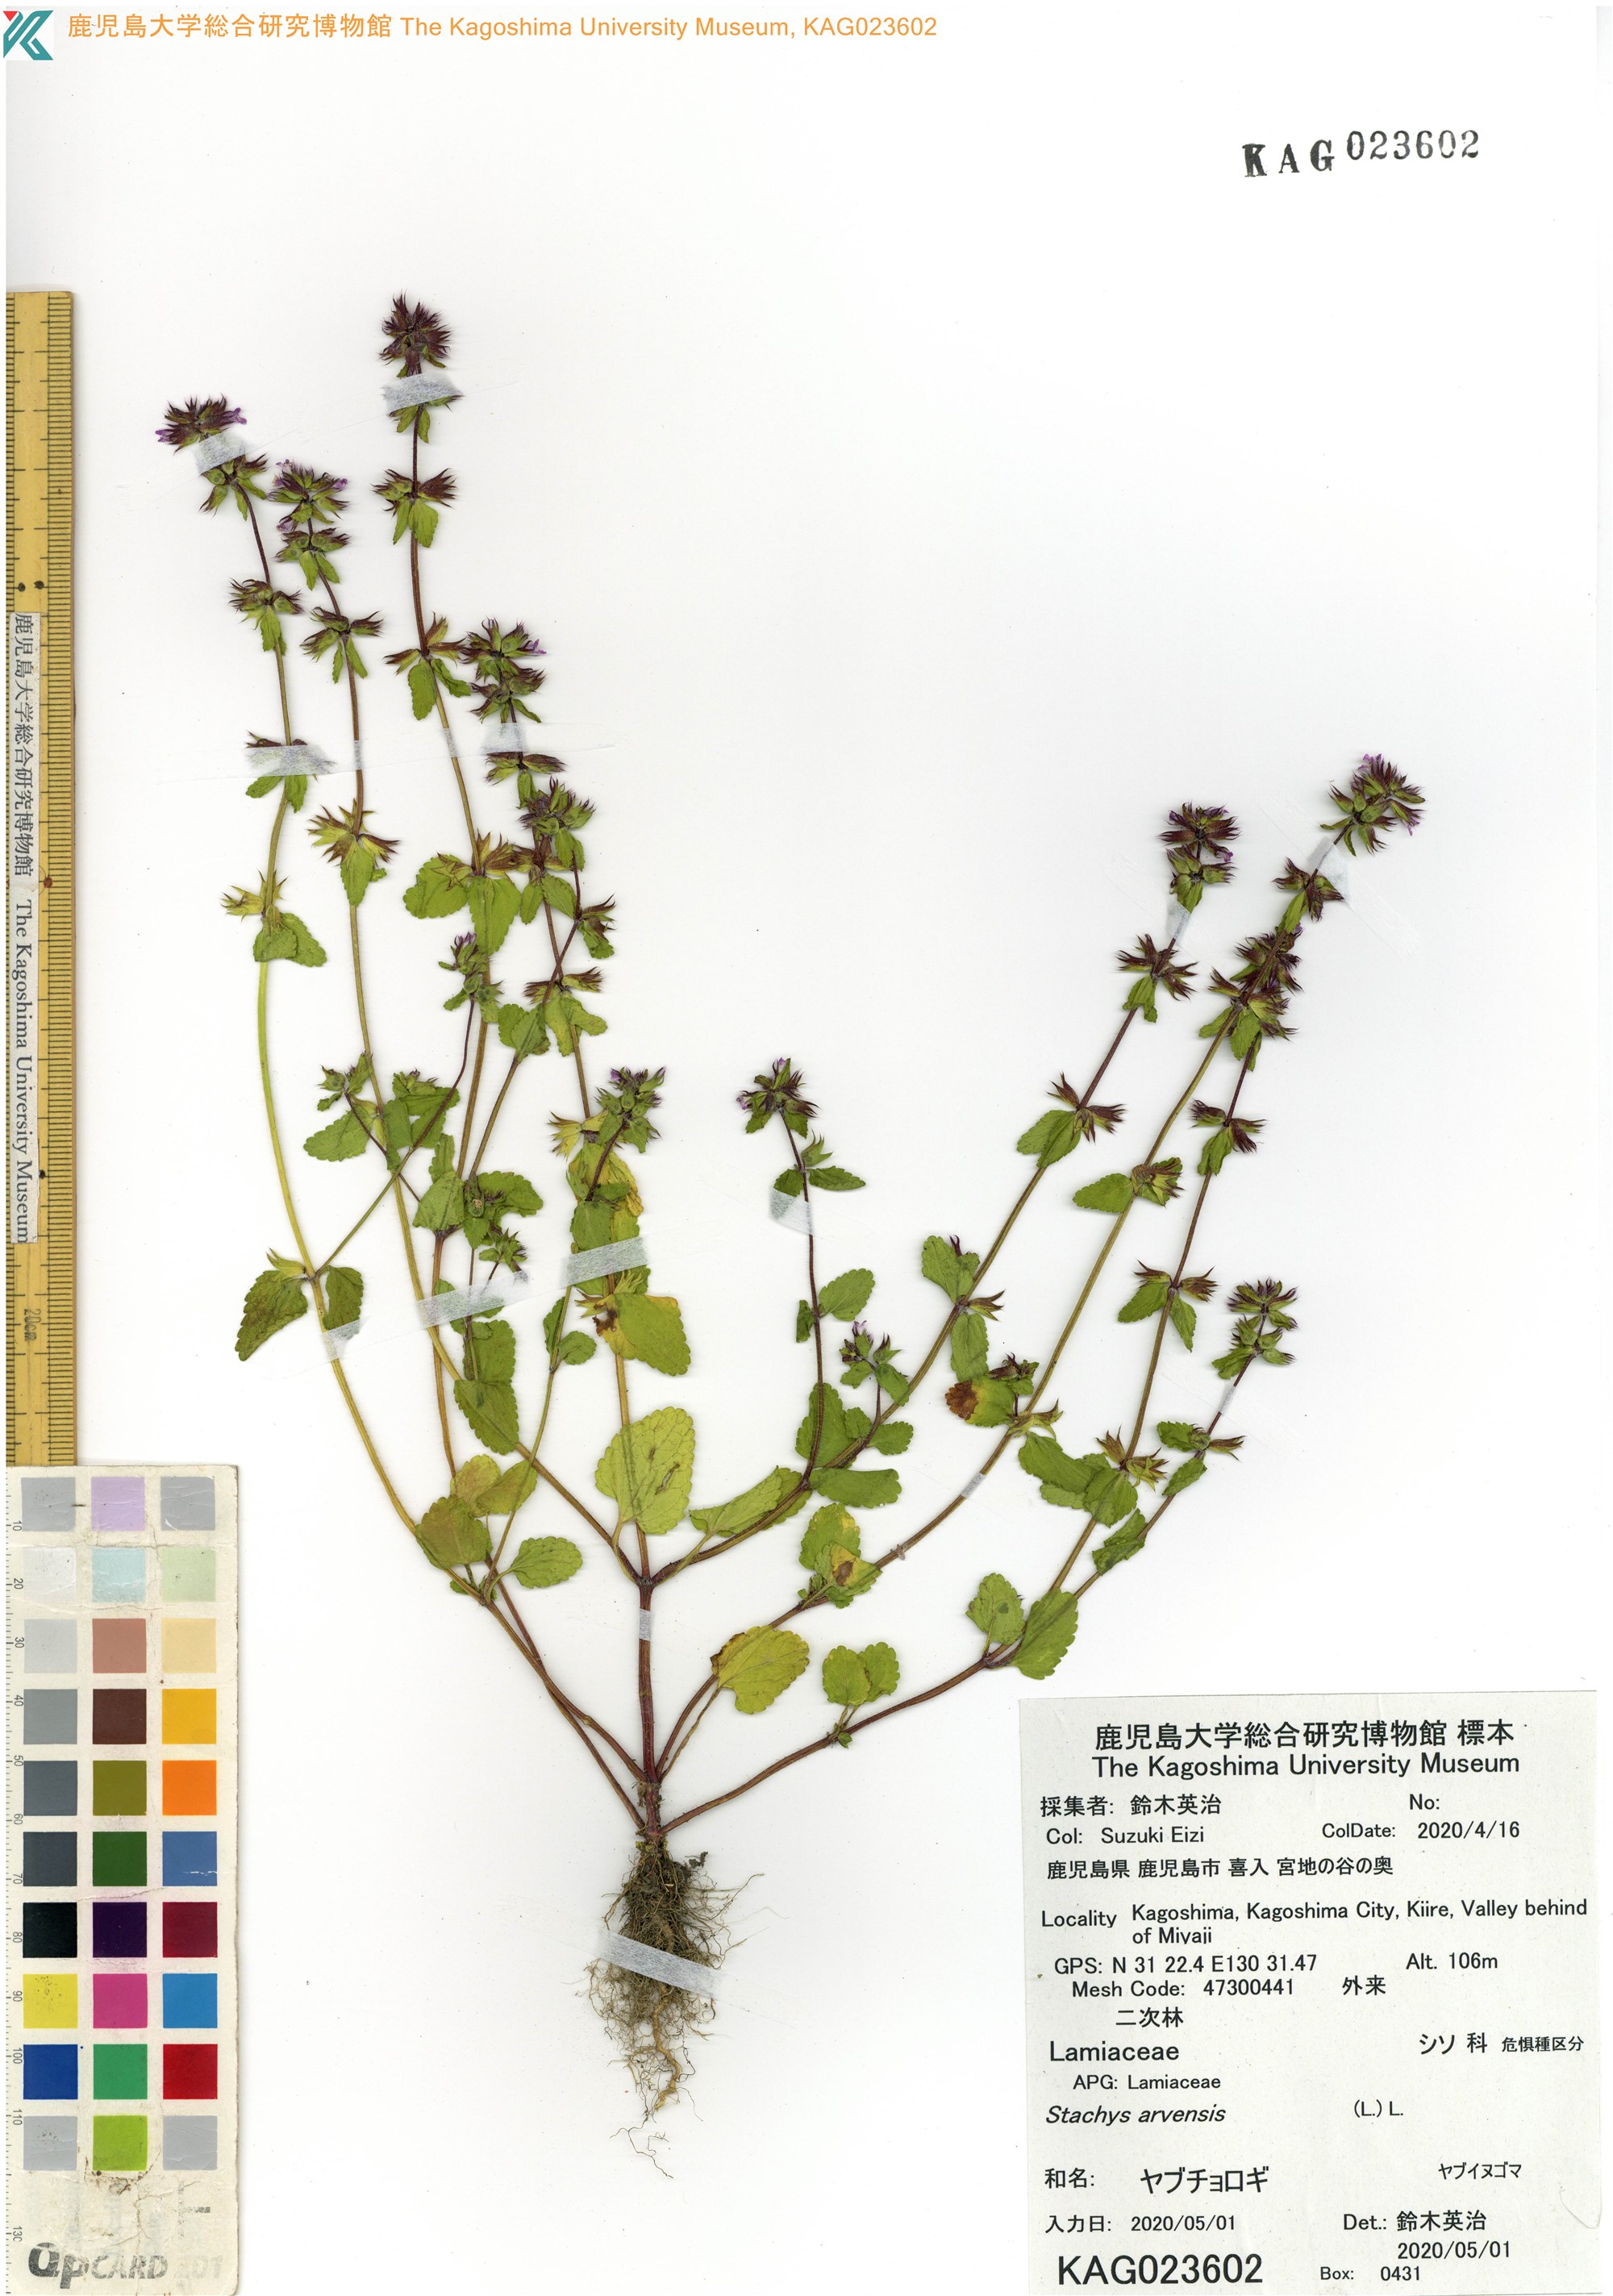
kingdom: Plantae
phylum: Tracheophyta
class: Magnoliopsida
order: Lamiales
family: Lamiaceae
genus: Stachys
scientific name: Stachys arvensis
